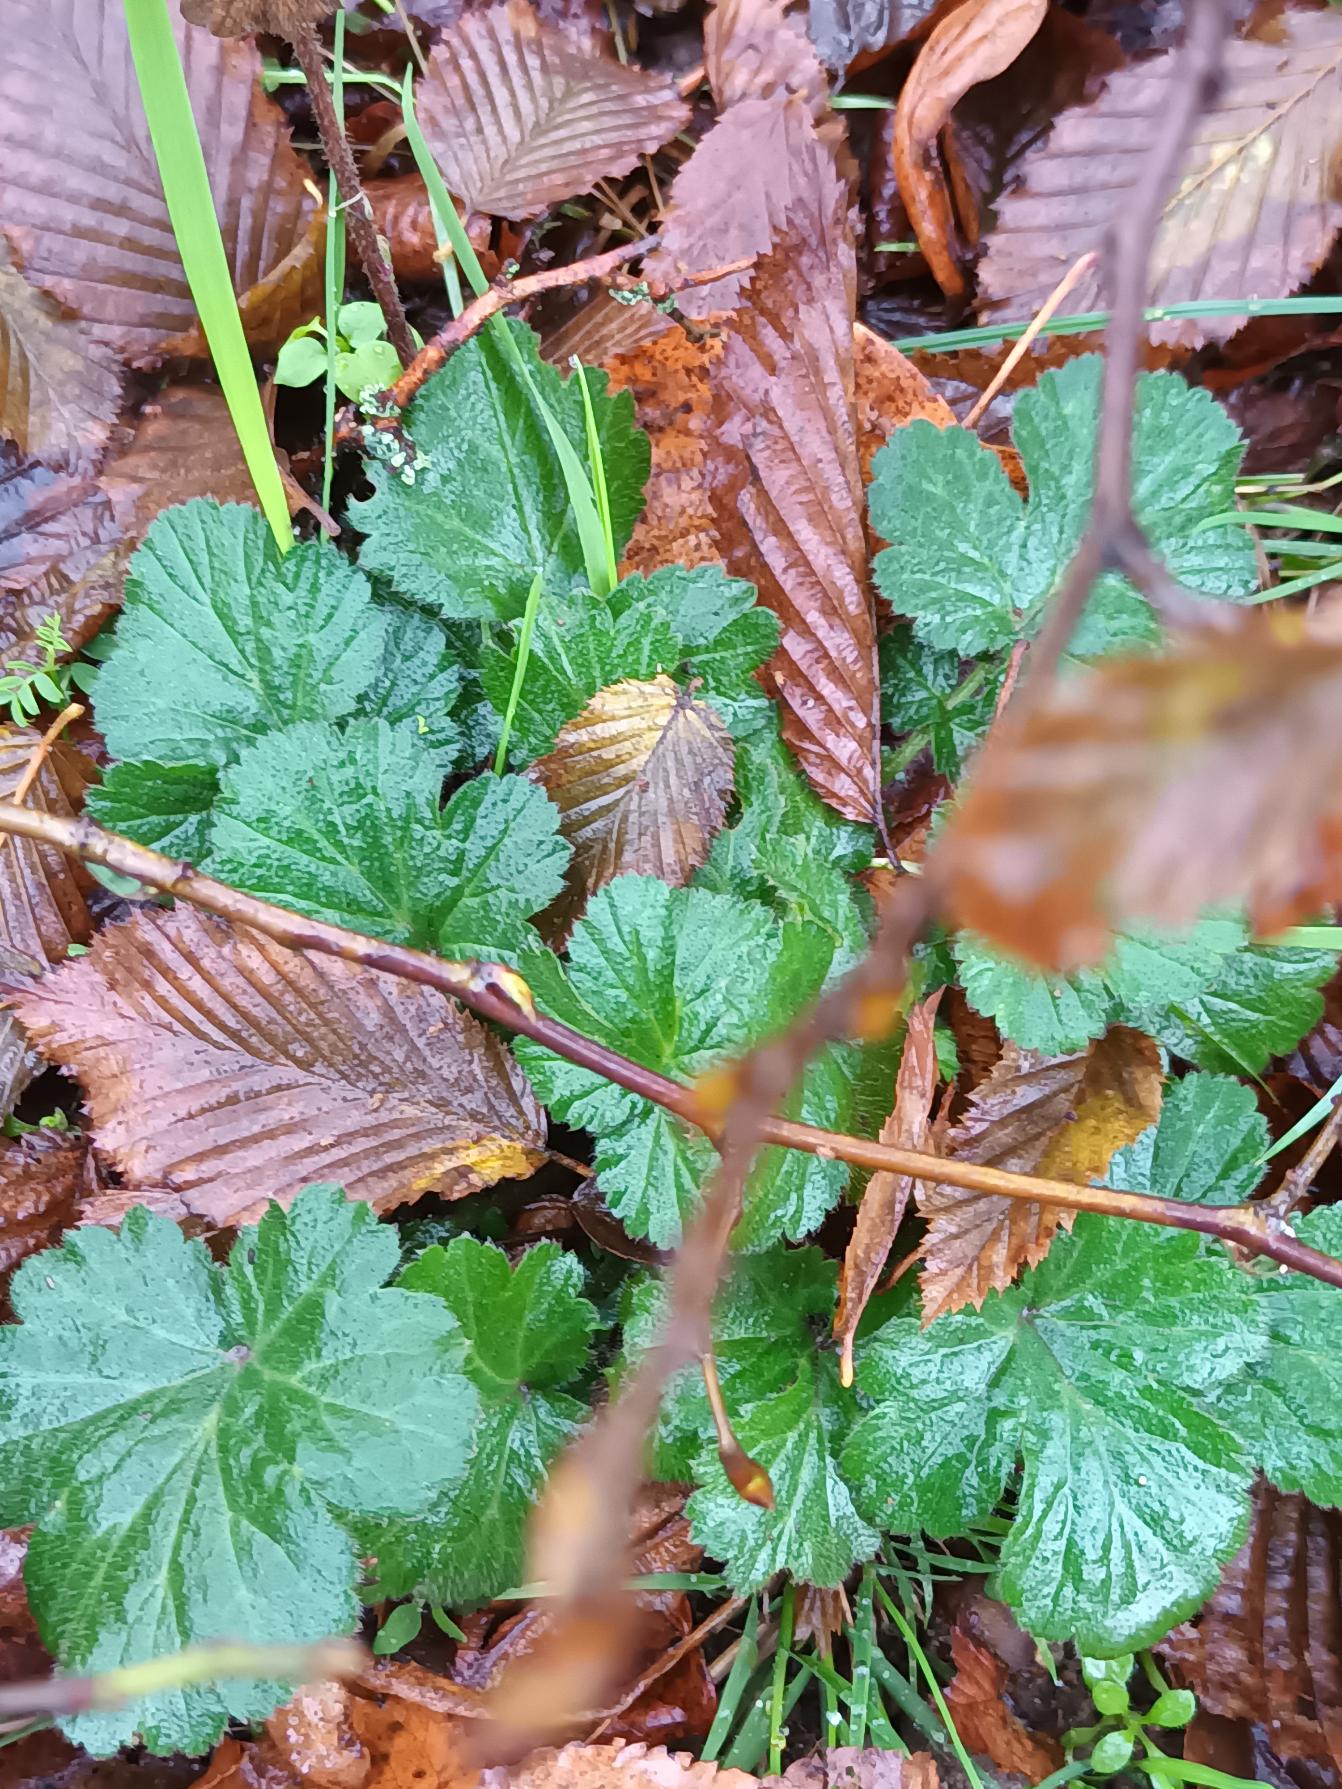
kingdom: Plantae
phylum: Tracheophyta
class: Magnoliopsida
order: Rosales
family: Rosaceae
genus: Geum
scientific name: Geum urbanum
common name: Feber-nellikerod
